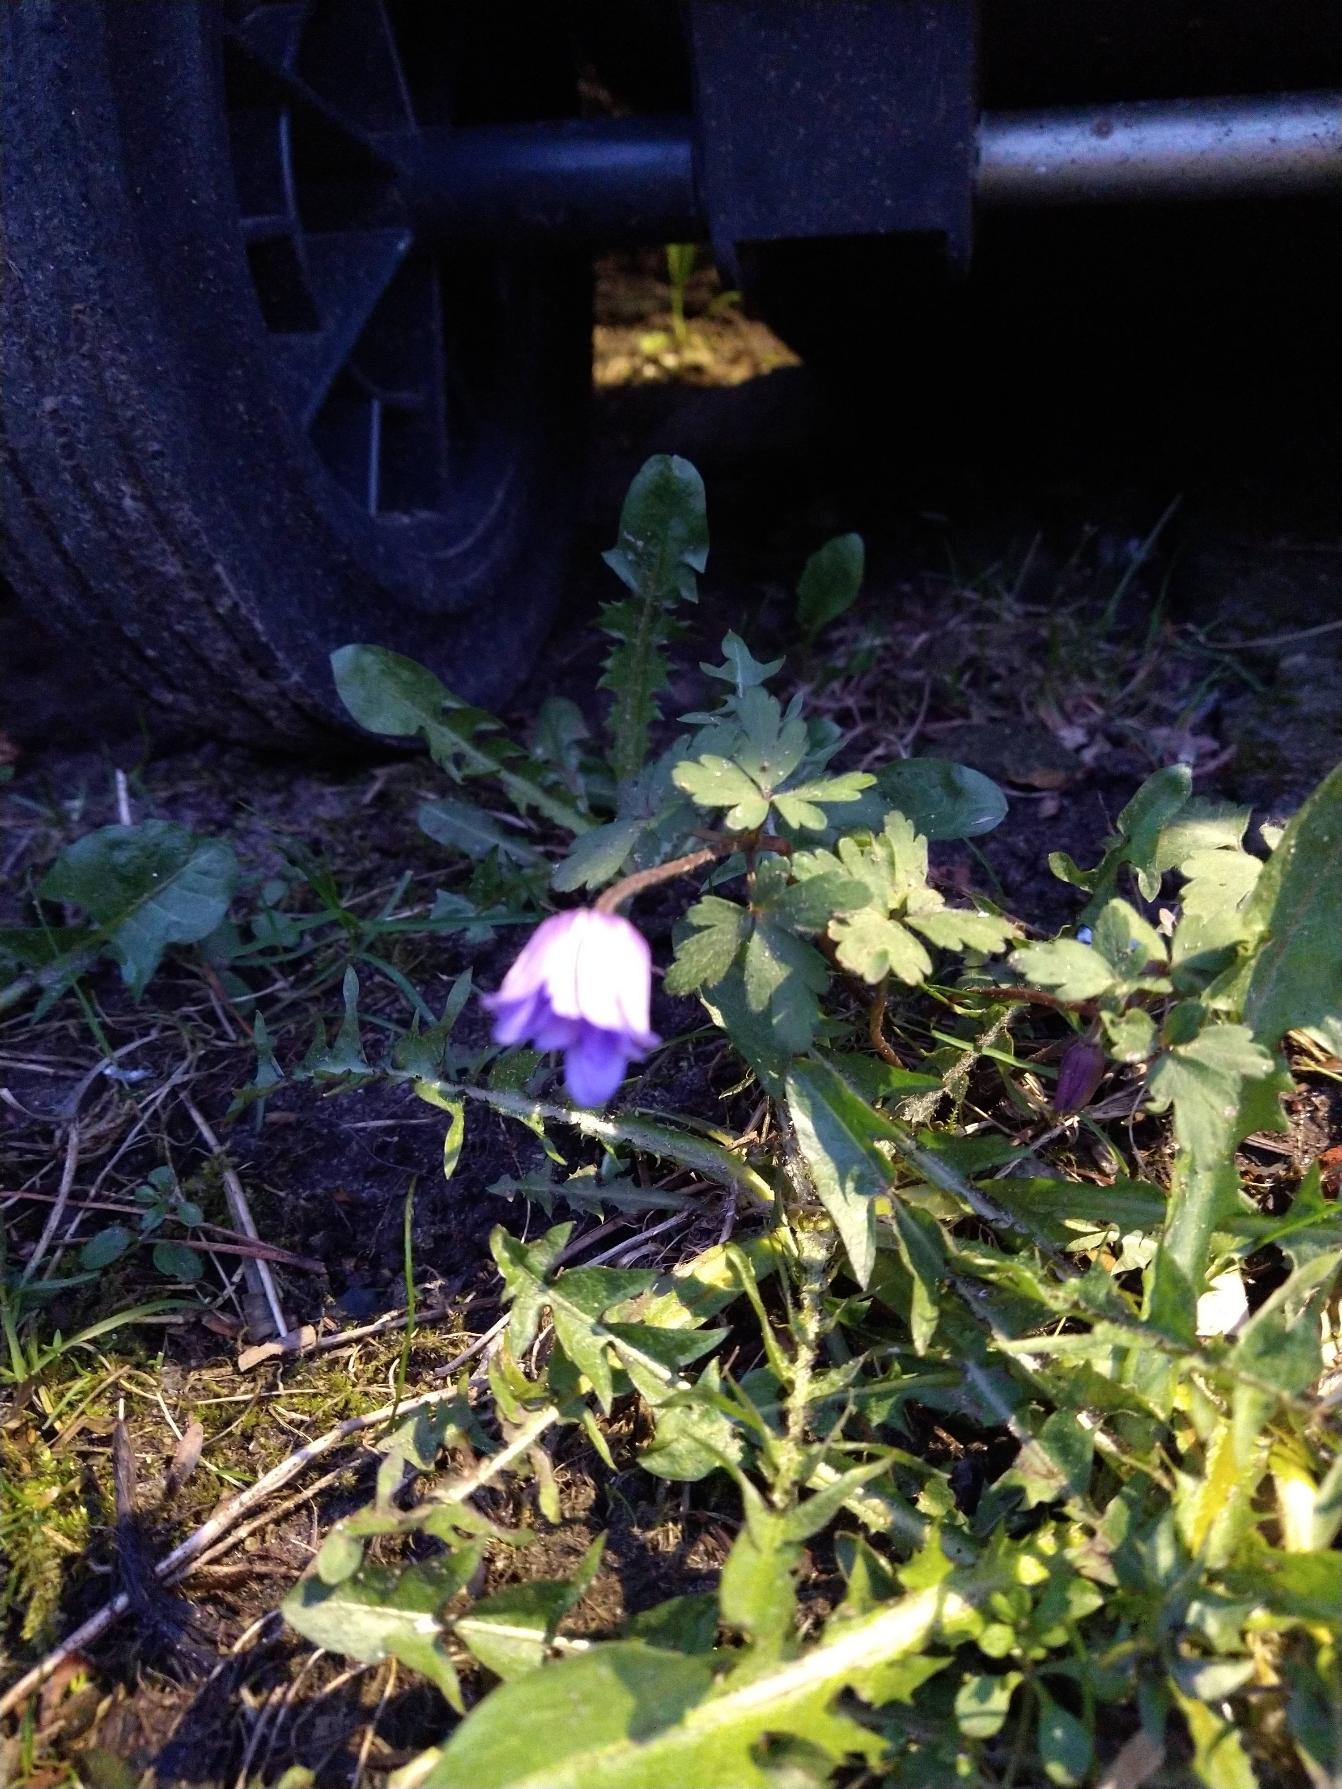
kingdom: Plantae
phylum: Tracheophyta
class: Magnoliopsida
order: Ranunculales
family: Ranunculaceae
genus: Anemone
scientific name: Anemone blanda
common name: Balkan-anemone
